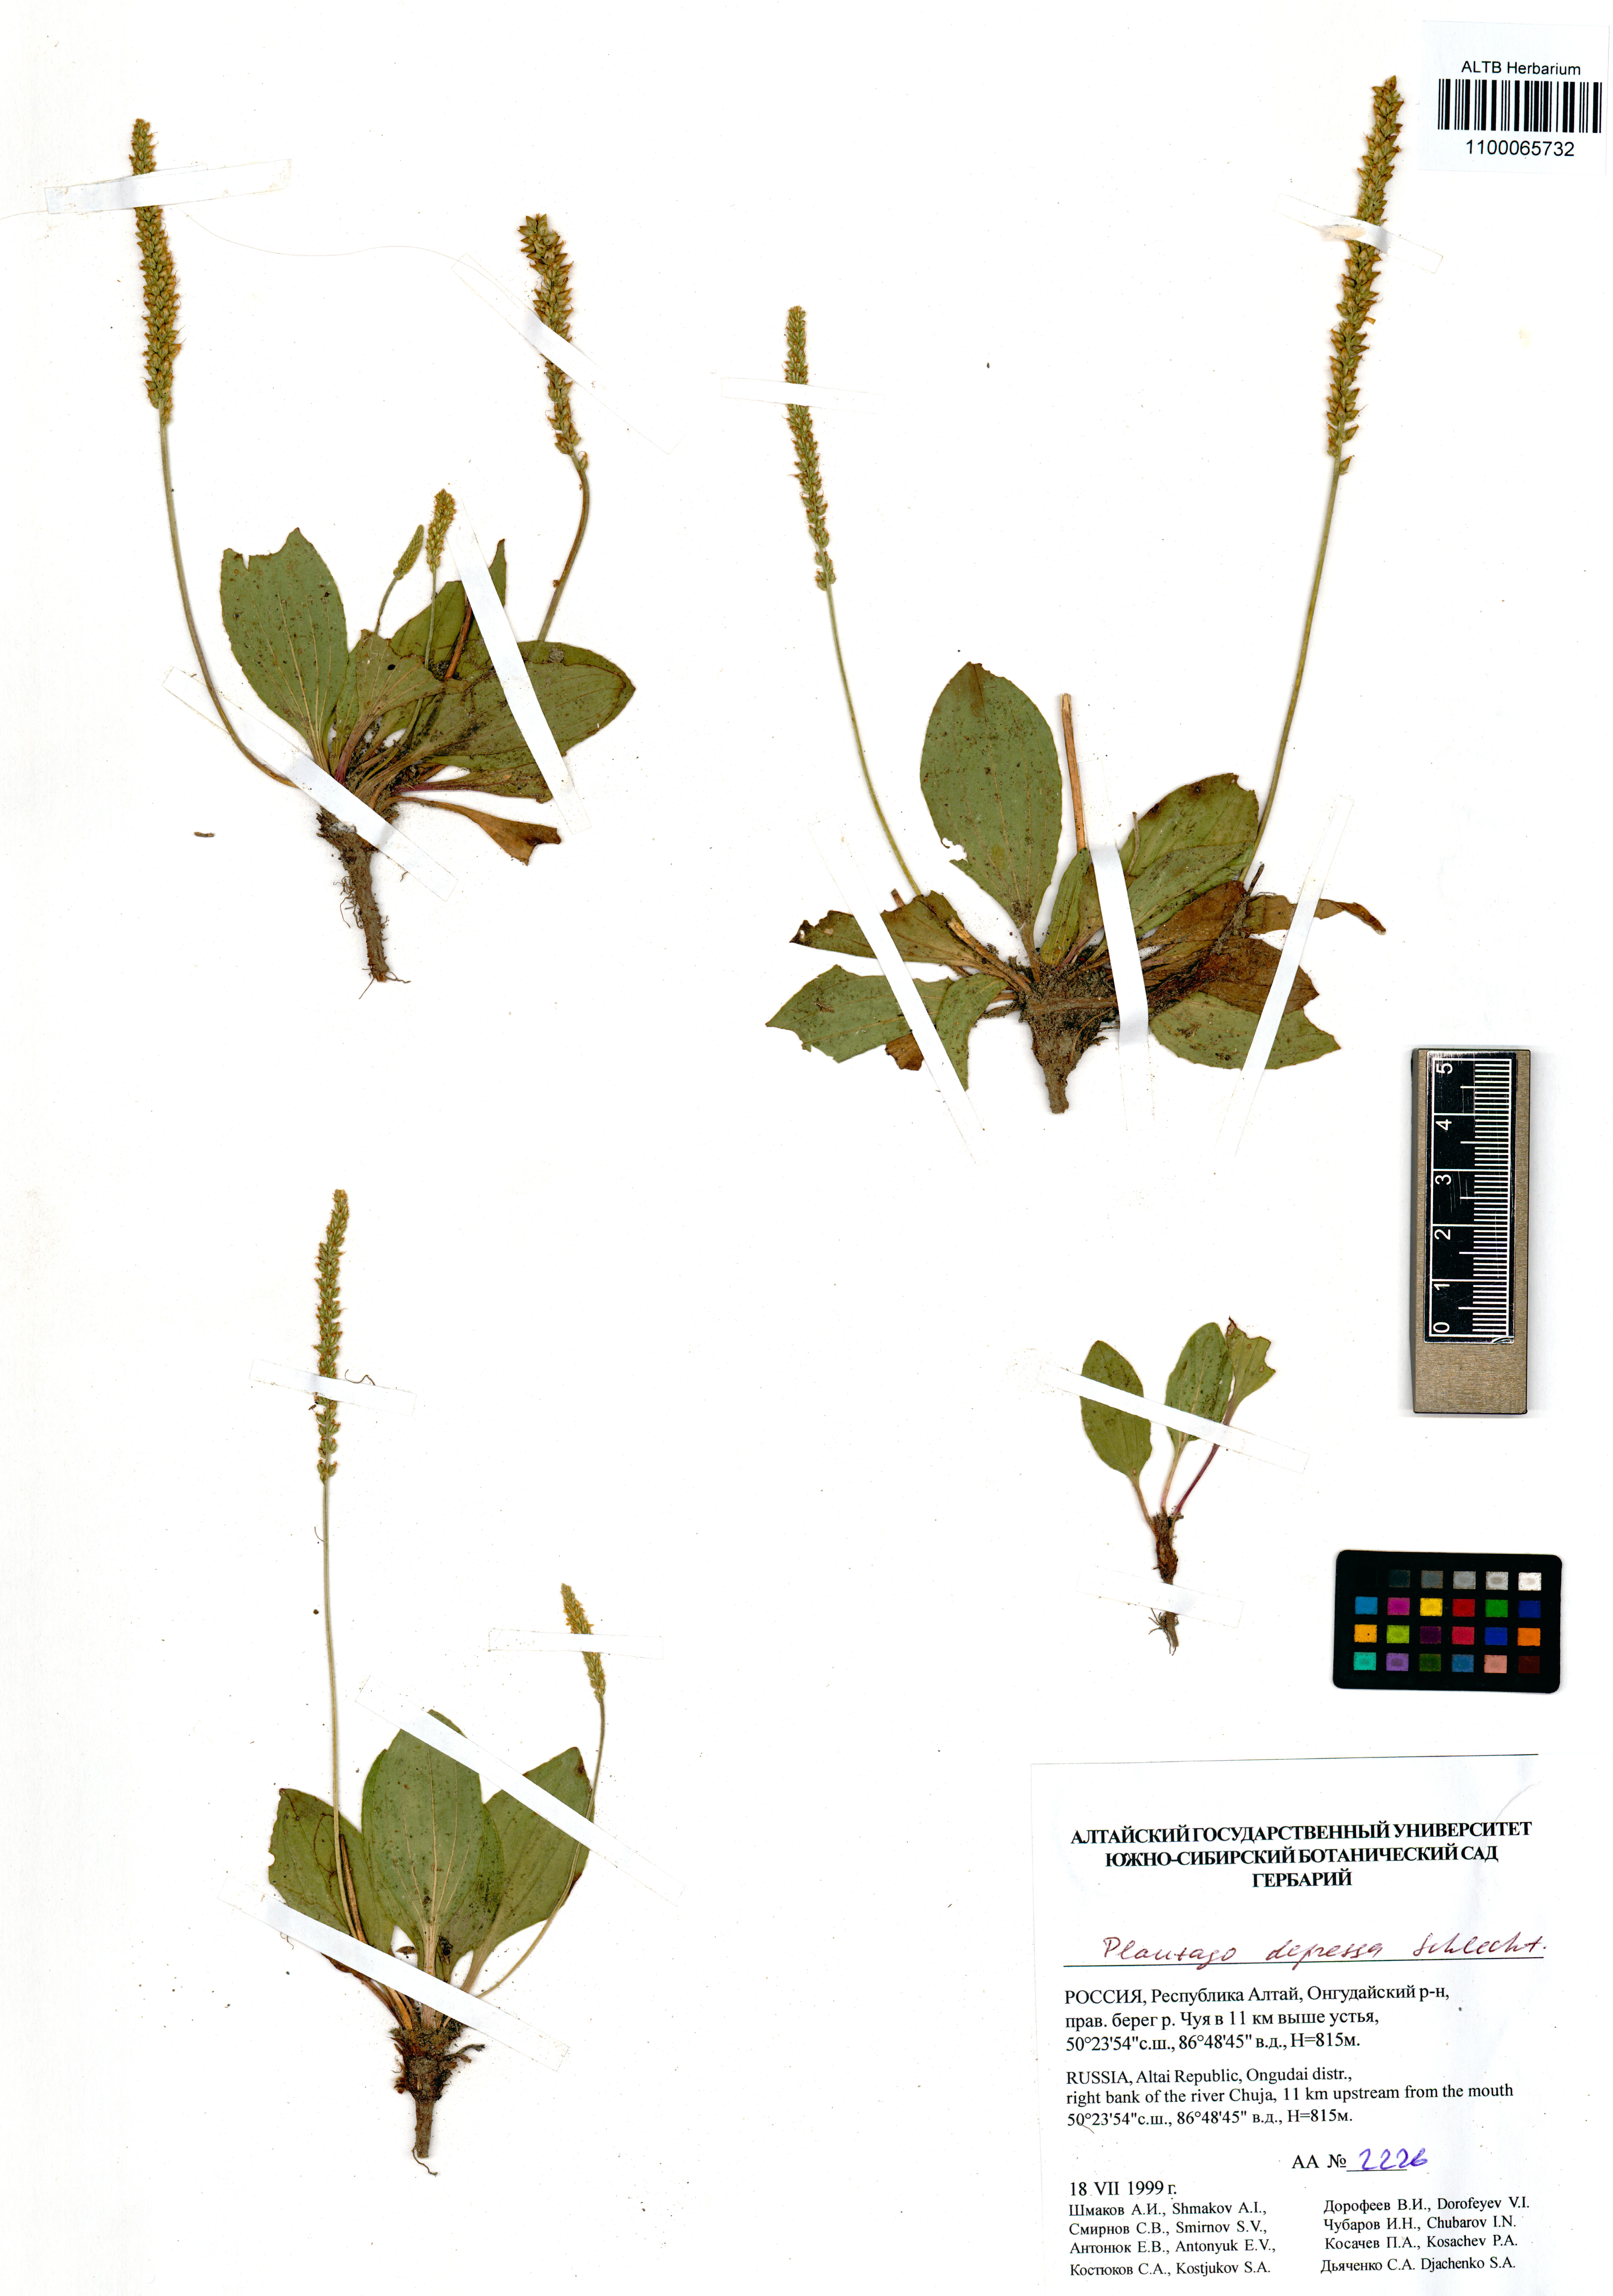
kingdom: Plantae
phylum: Tracheophyta
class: Magnoliopsida
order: Lamiales
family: Plantaginaceae
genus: Plantago
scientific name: Plantago depressa
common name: Depressed plantain
